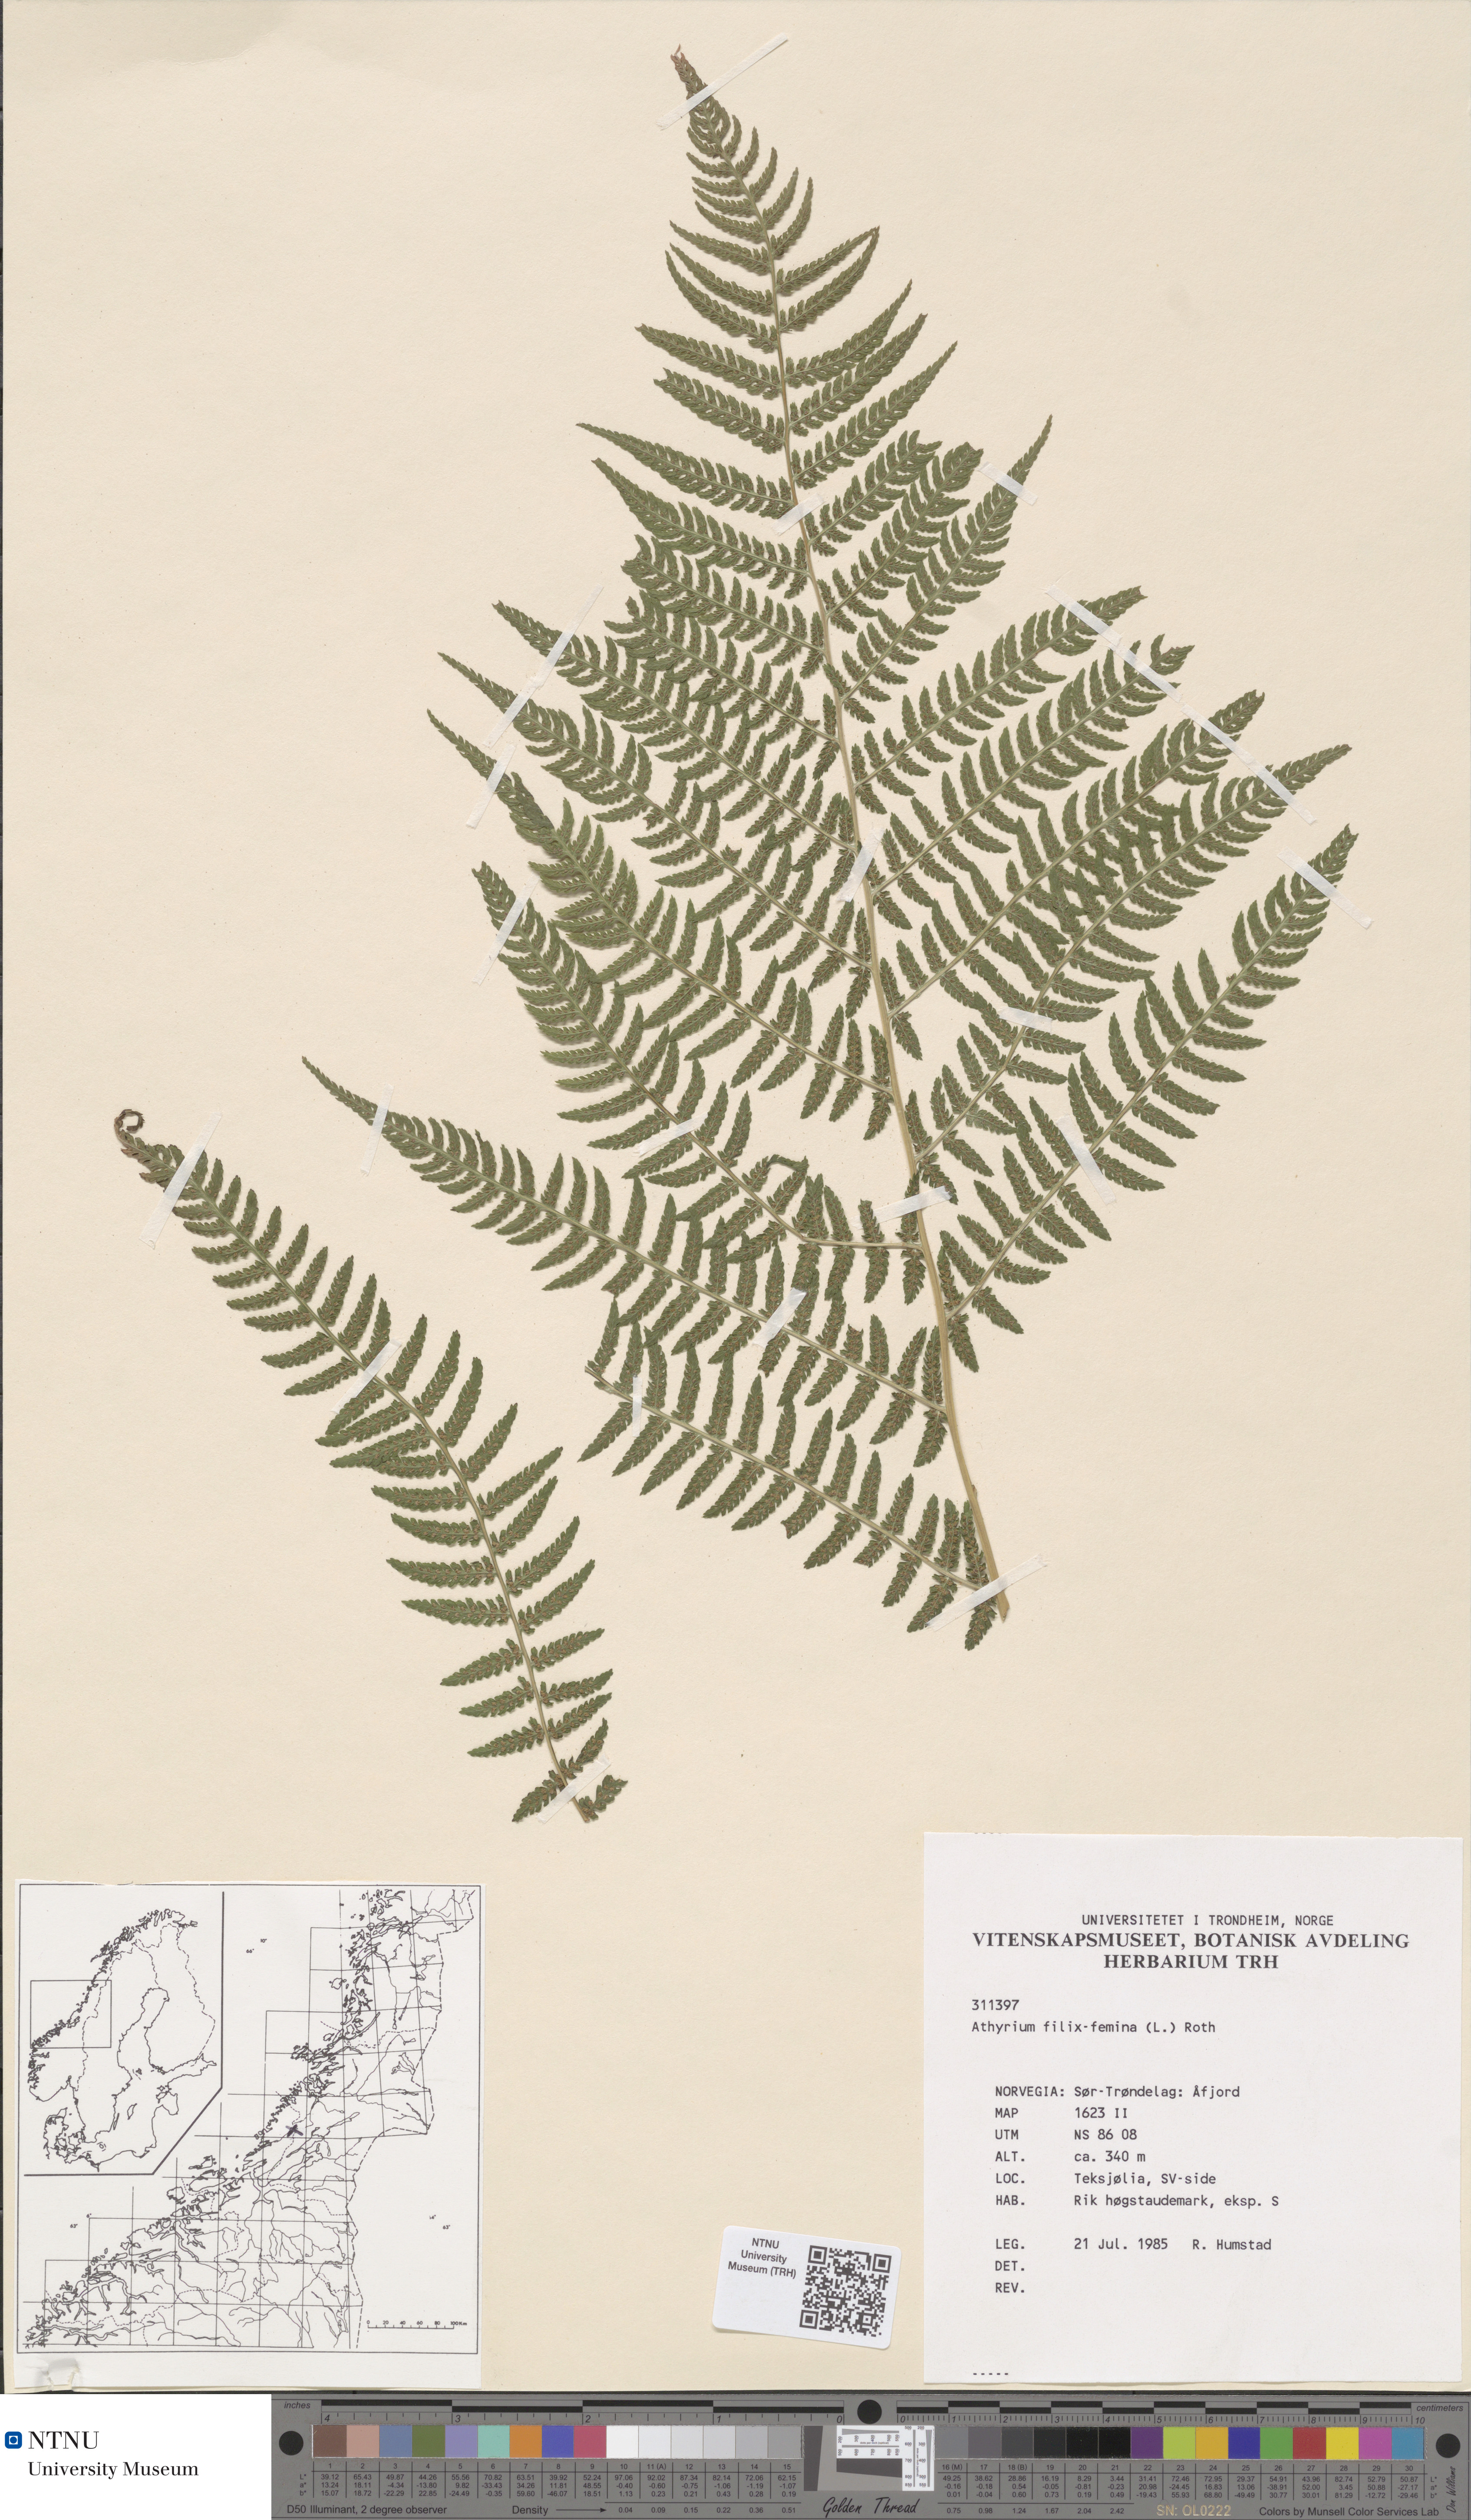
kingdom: Plantae
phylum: Tracheophyta
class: Polypodiopsida
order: Polypodiales
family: Athyriaceae
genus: Athyrium
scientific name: Athyrium filix-femina
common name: Lady fern
